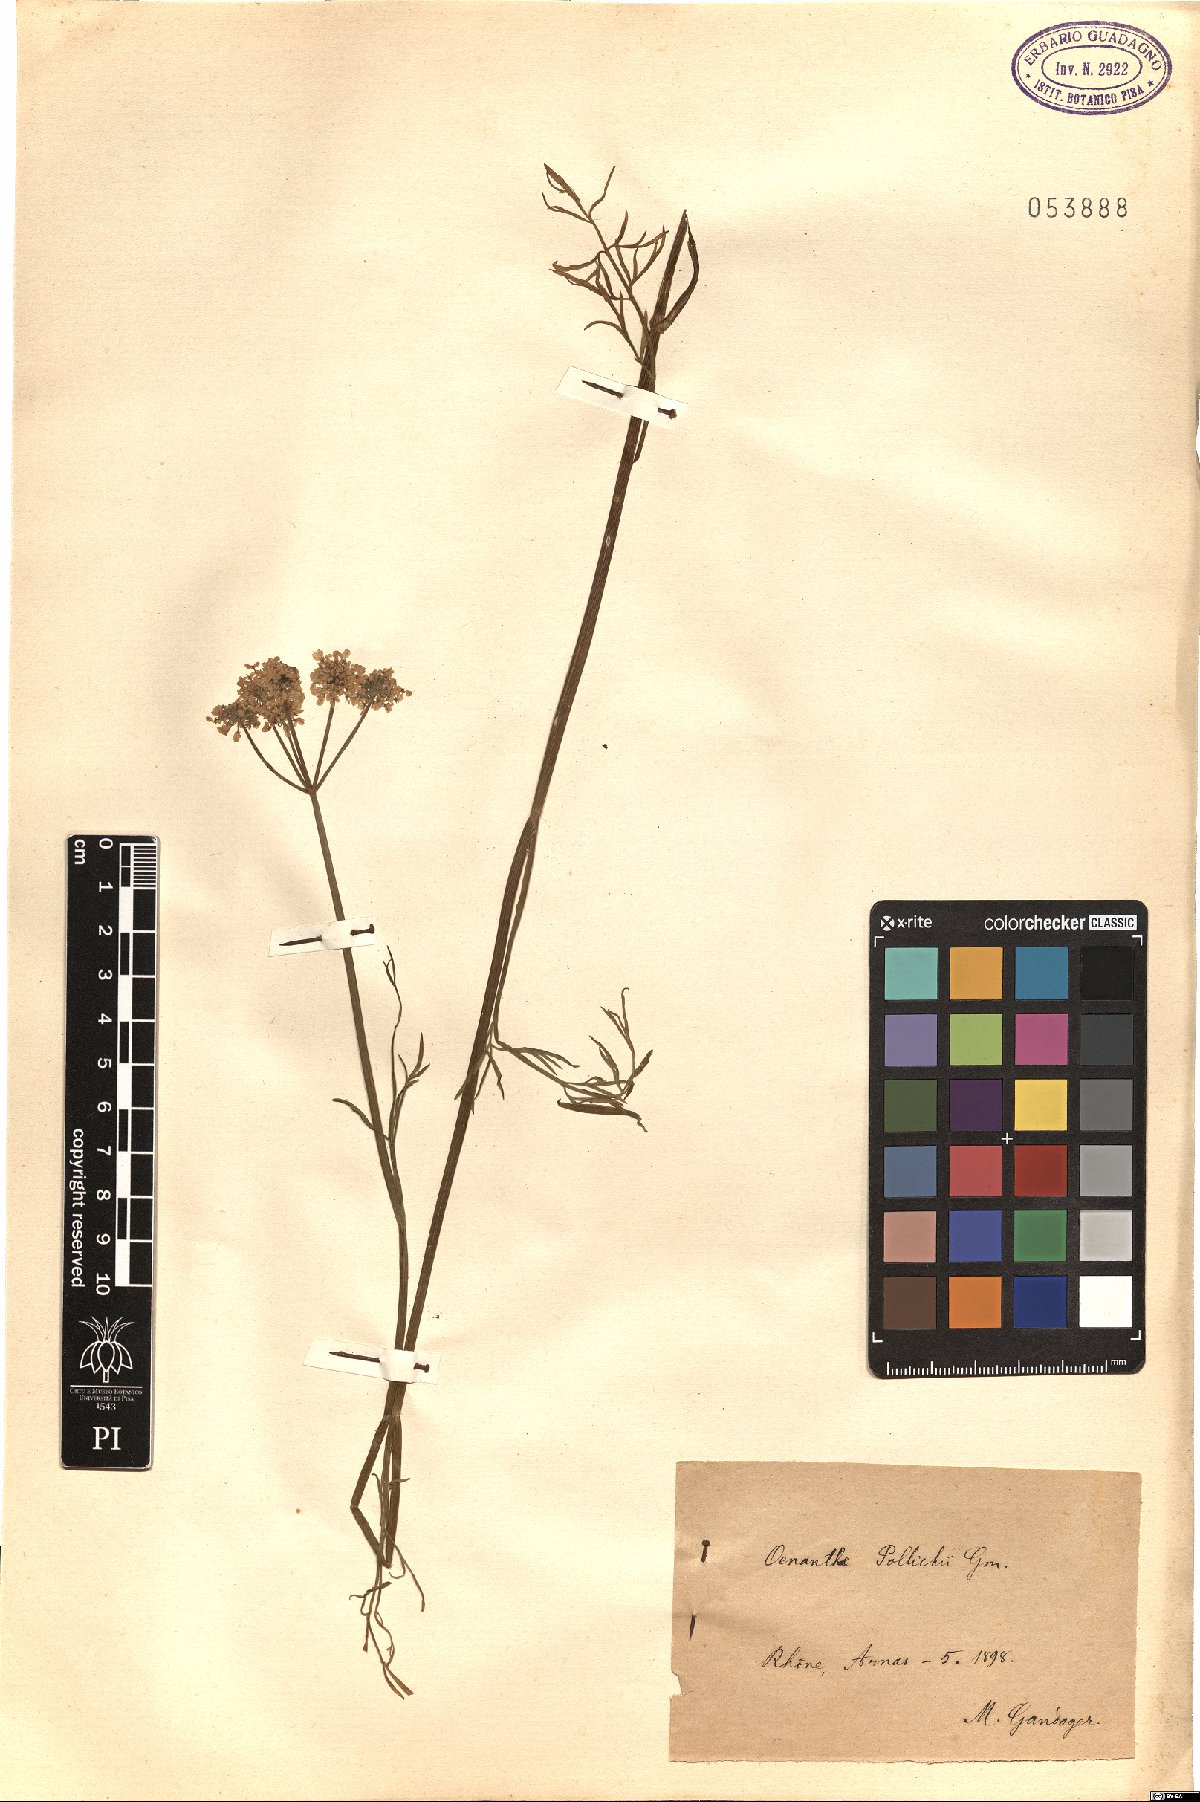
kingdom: Plantae
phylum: Tracheophyta
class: Magnoliopsida
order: Apiales
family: Apiaceae
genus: Oenanthe
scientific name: Oenanthe peucedanifolia
